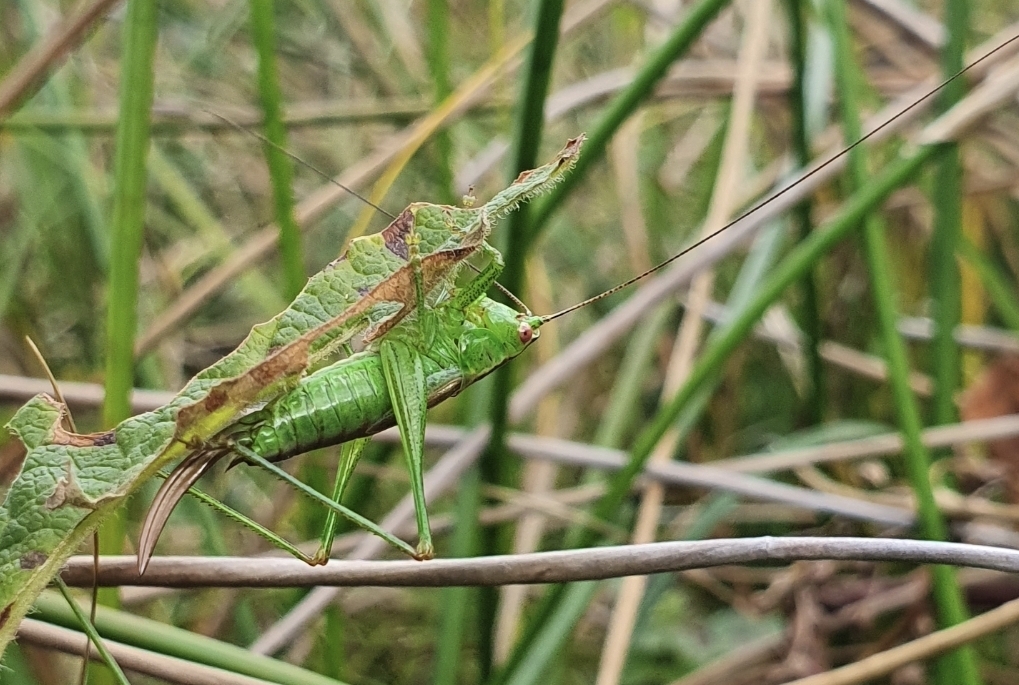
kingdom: Animalia
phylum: Arthropoda
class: Insecta
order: Orthoptera
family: Tettigoniidae
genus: Conocephalus
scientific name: Conocephalus dorsalis
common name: Sivgræshoppe
